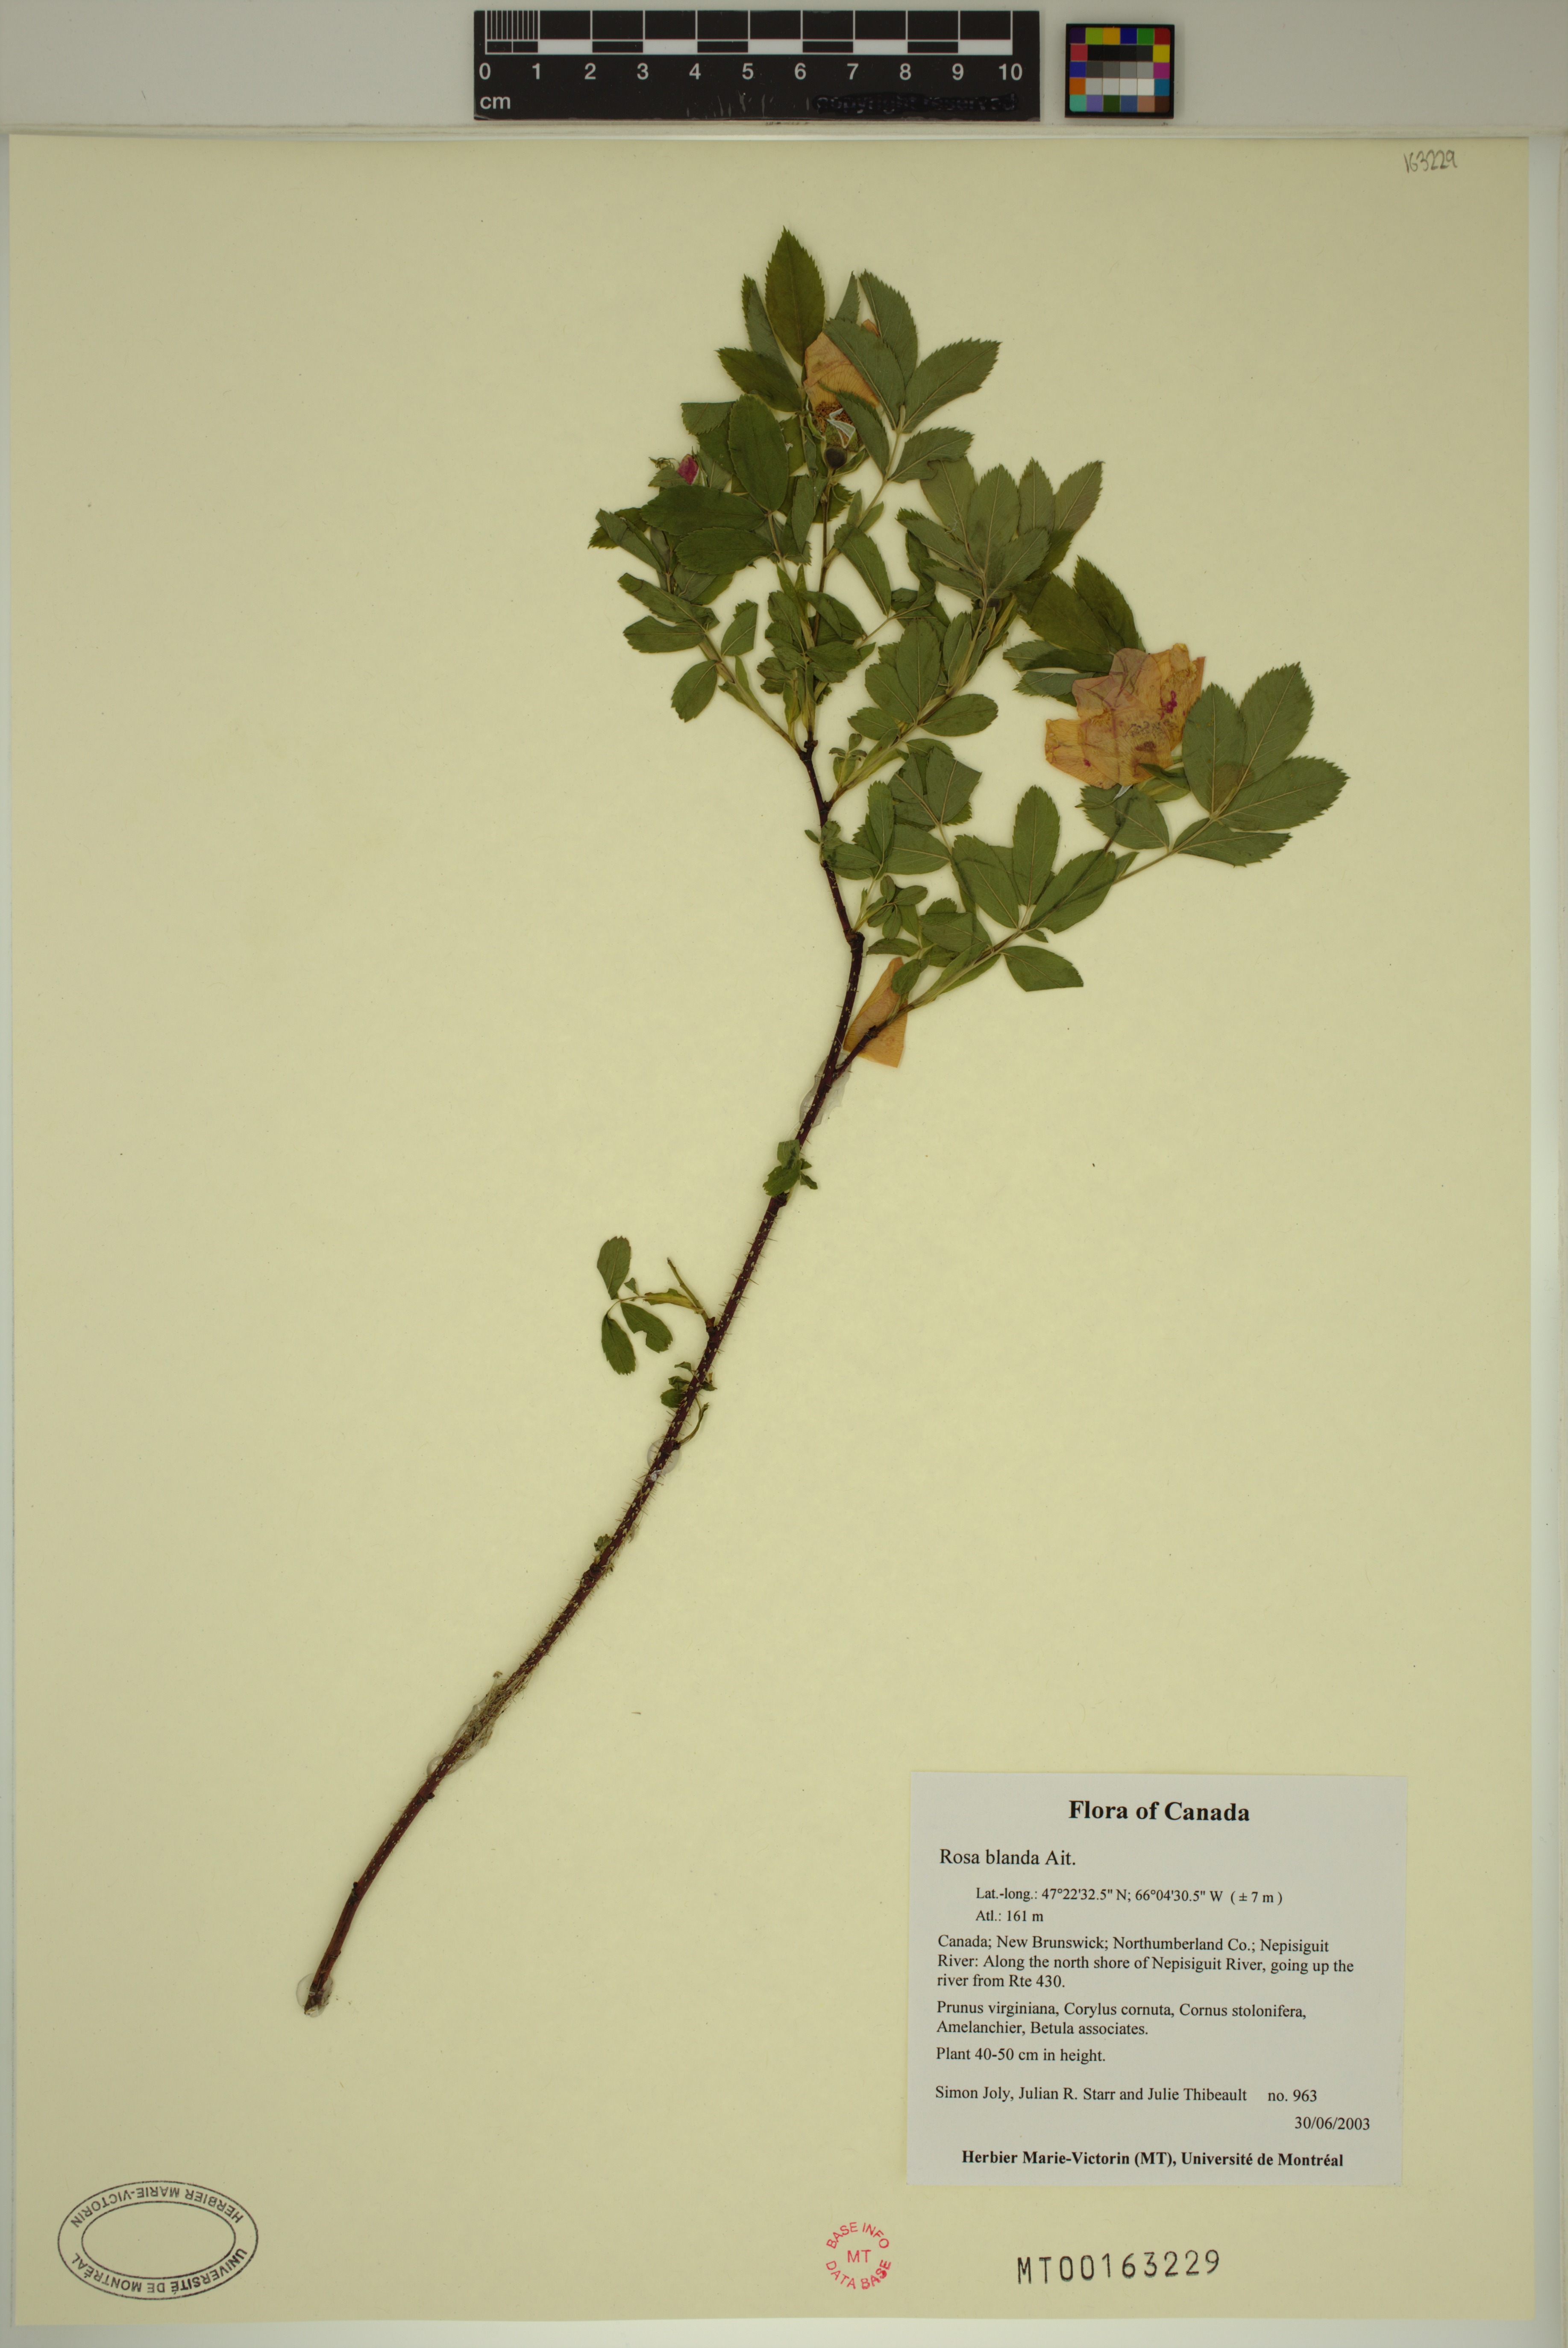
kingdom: Plantae
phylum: Tracheophyta
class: Magnoliopsida
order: Rosales
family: Rosaceae
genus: Rosa
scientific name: Rosa blanda
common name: Smooth rose
